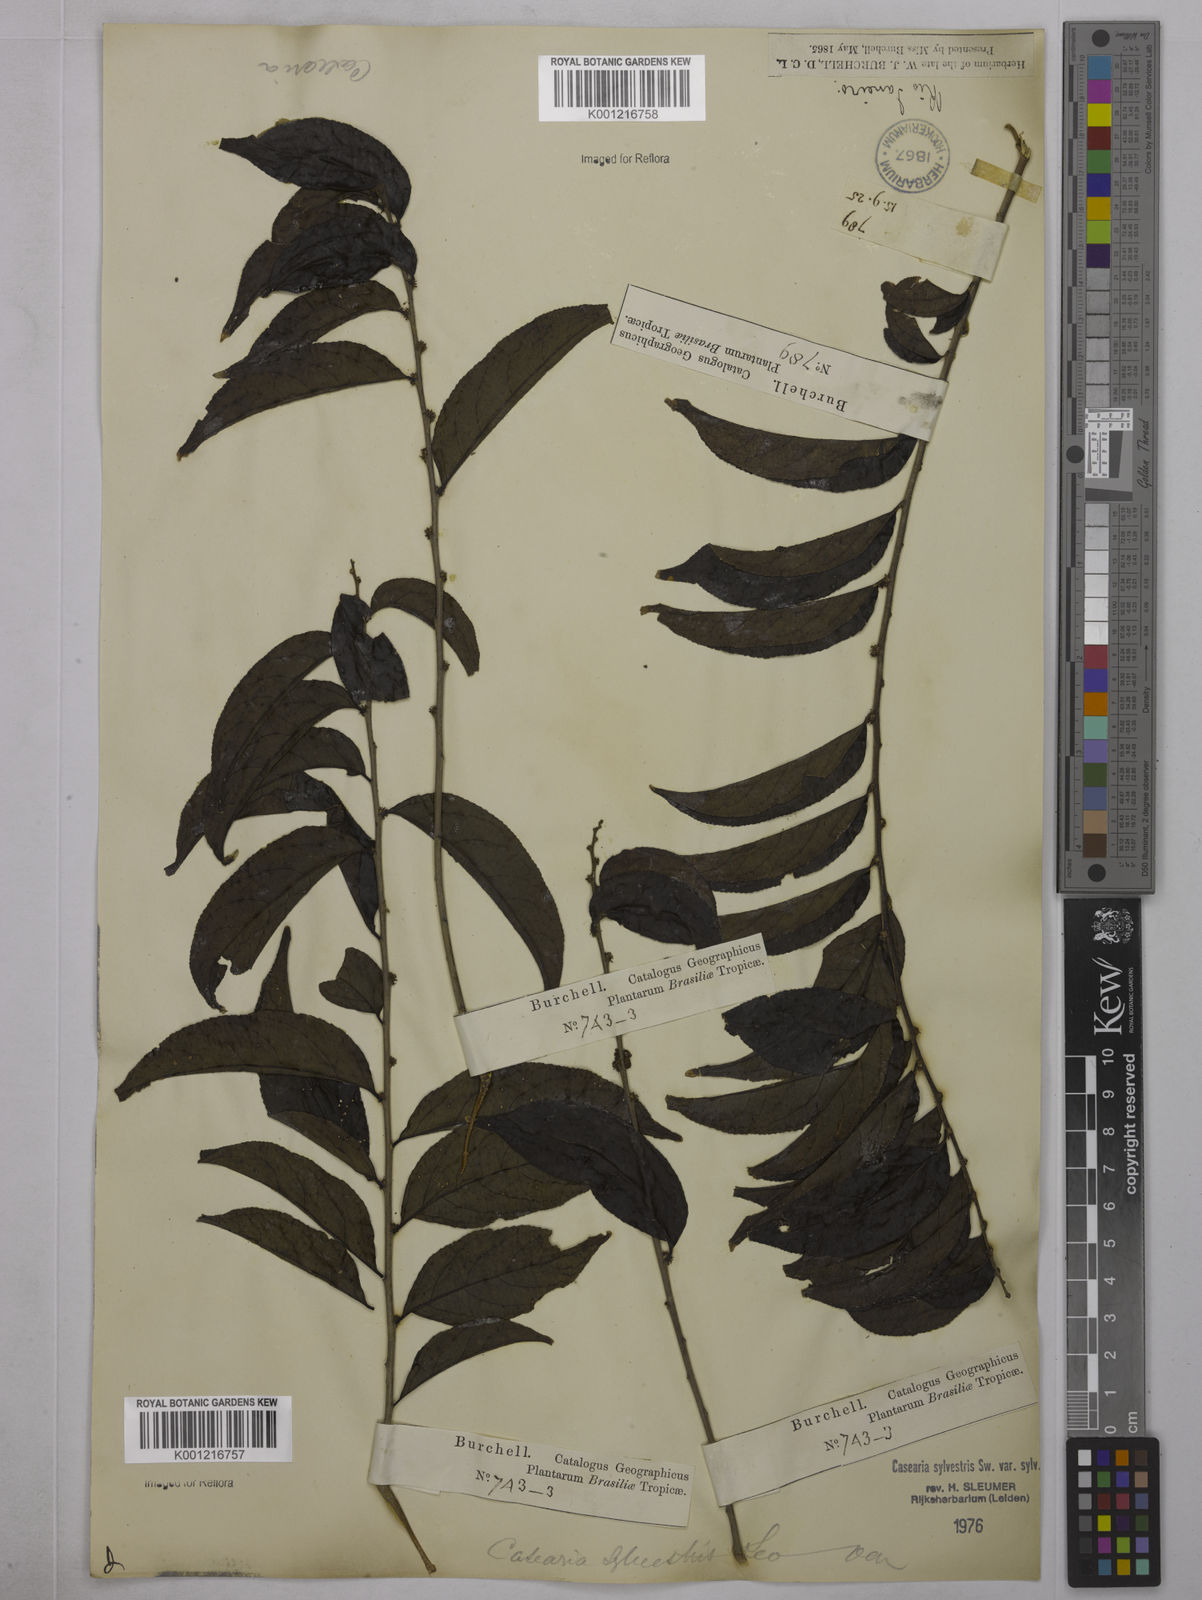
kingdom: Plantae
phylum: Tracheophyta
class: Magnoliopsida
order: Malpighiales
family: Salicaceae
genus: Casearia
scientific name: Casearia sylvestris
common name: Wild sage
